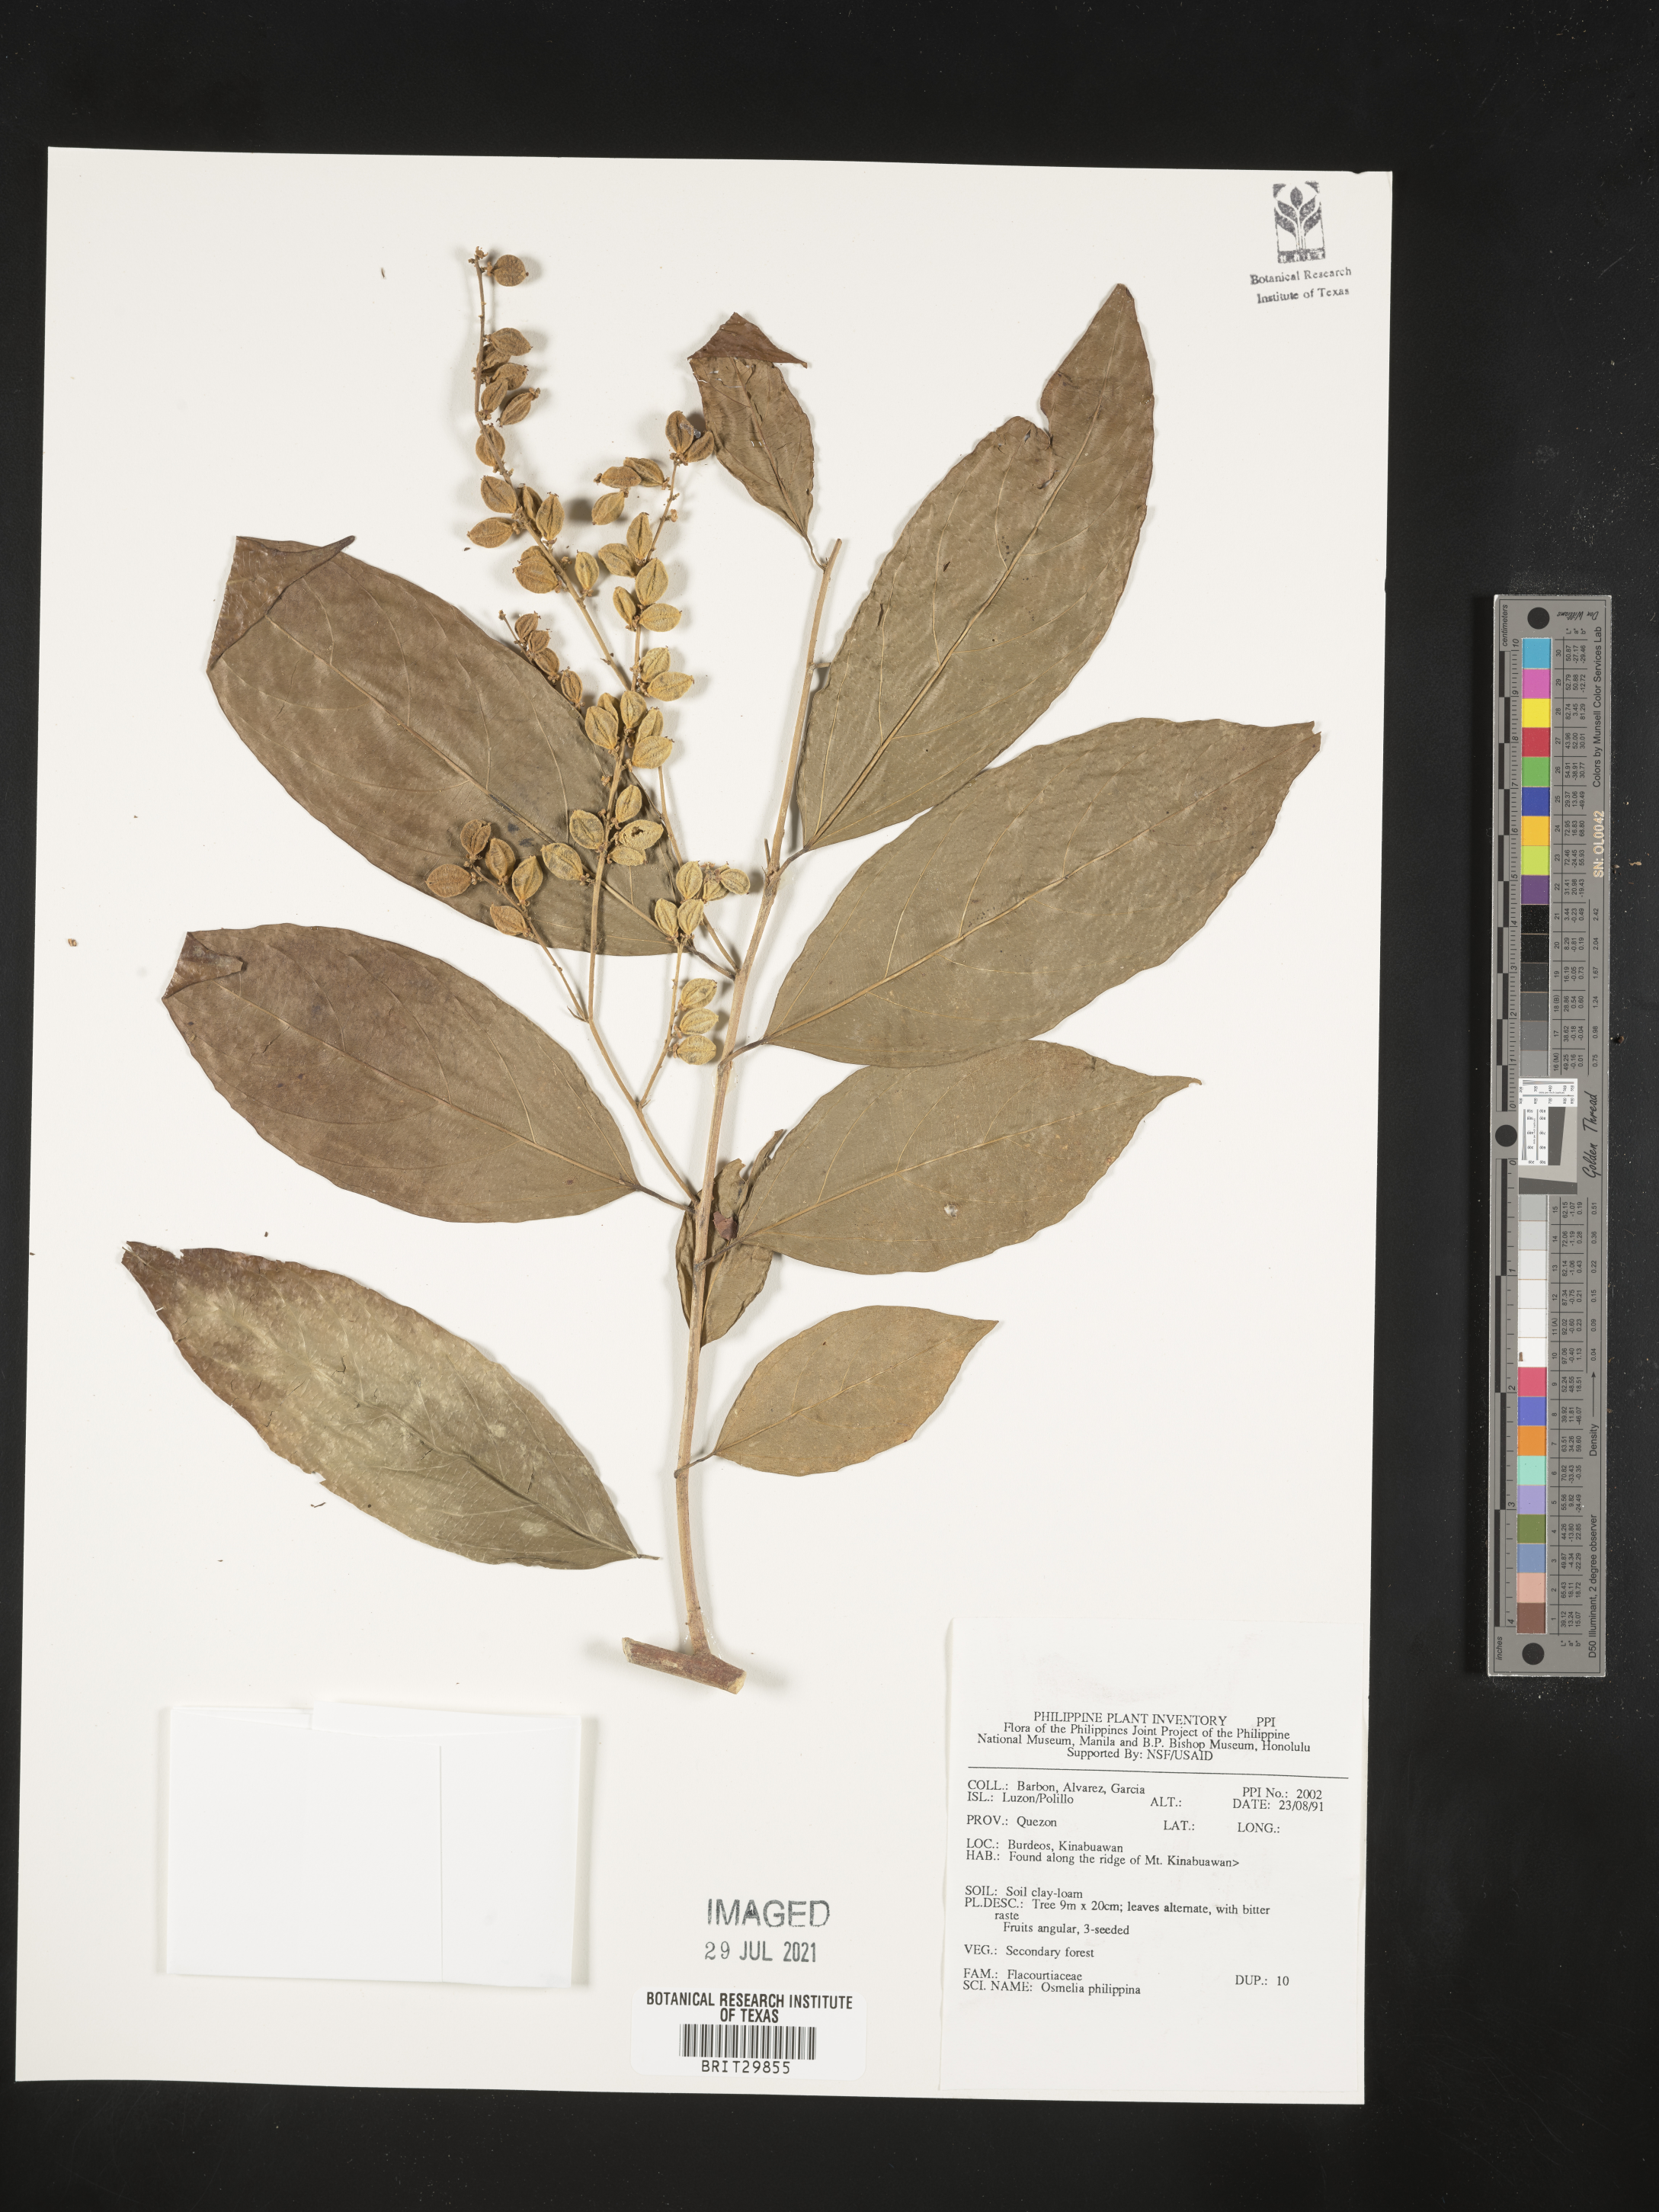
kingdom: Plantae
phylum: Tracheophyta
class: Magnoliopsida
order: Malpighiales
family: Salicaceae
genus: Osmelia
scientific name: Osmelia philippina
